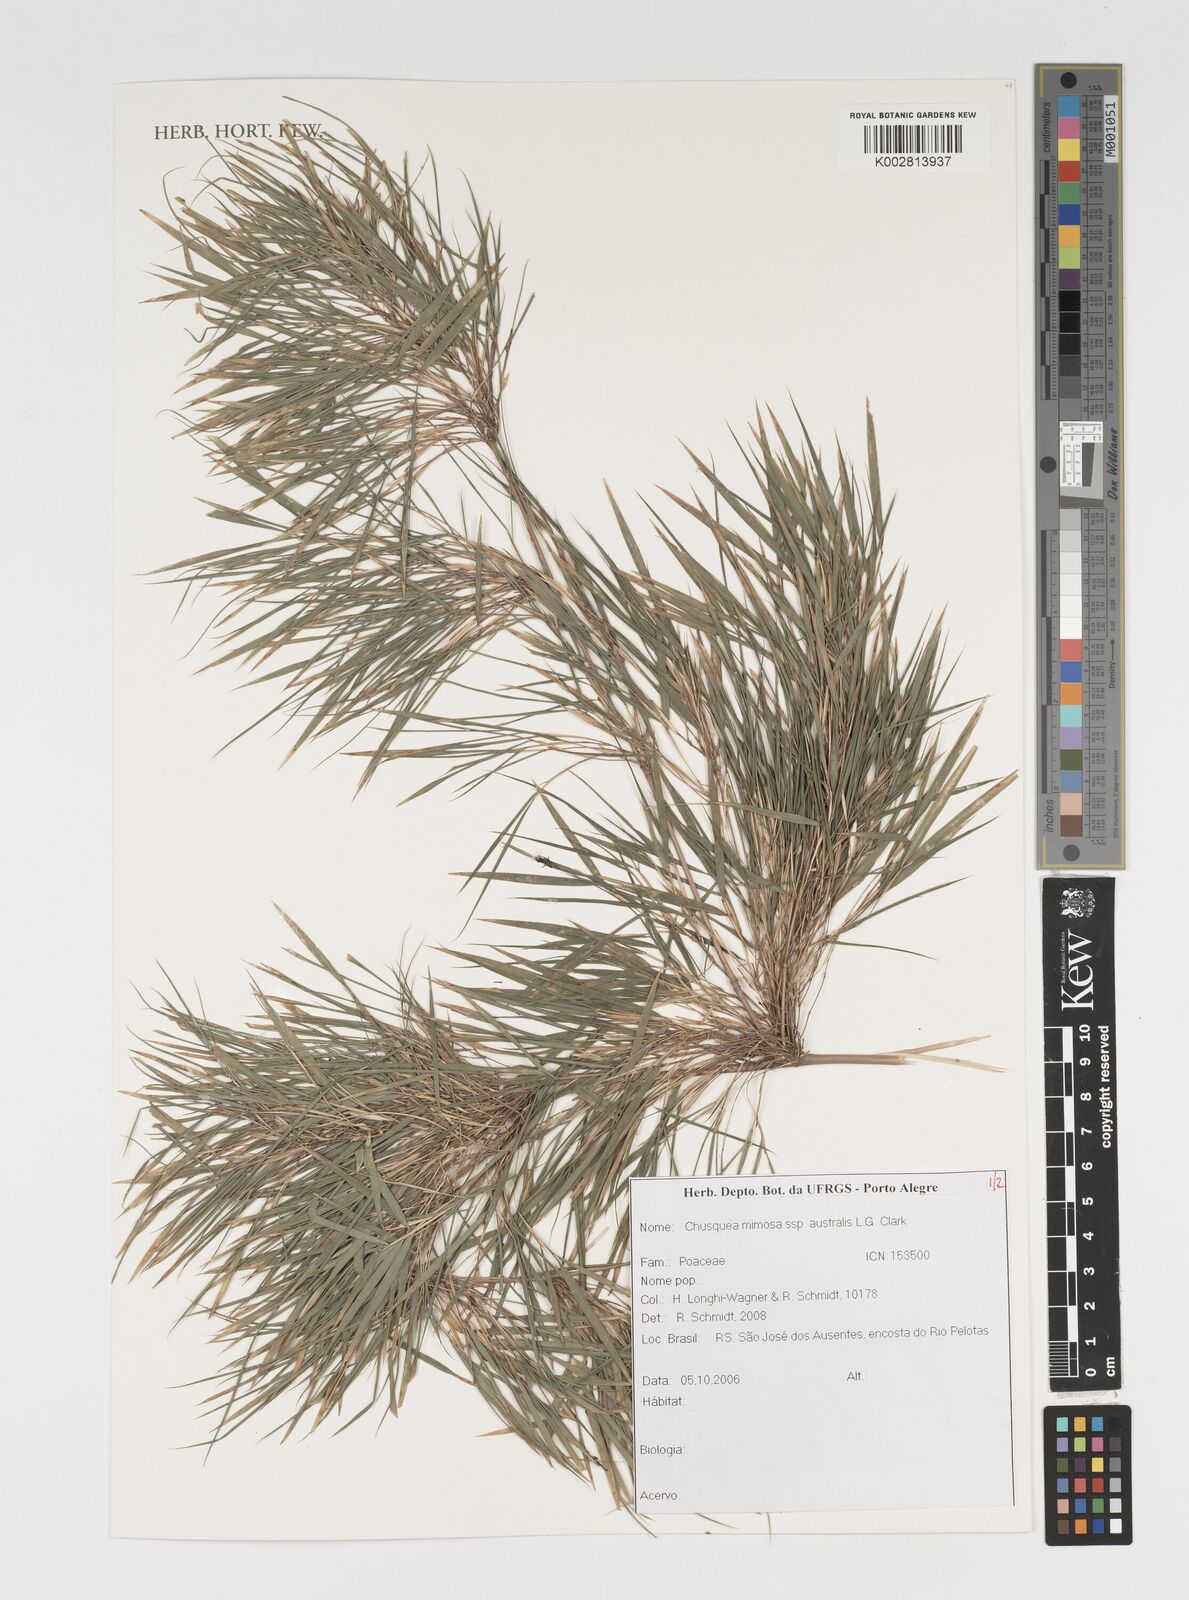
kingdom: Plantae
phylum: Tracheophyta
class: Liliopsida
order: Poales
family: Poaceae
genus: Chusquea
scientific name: Chusquea mimosa
